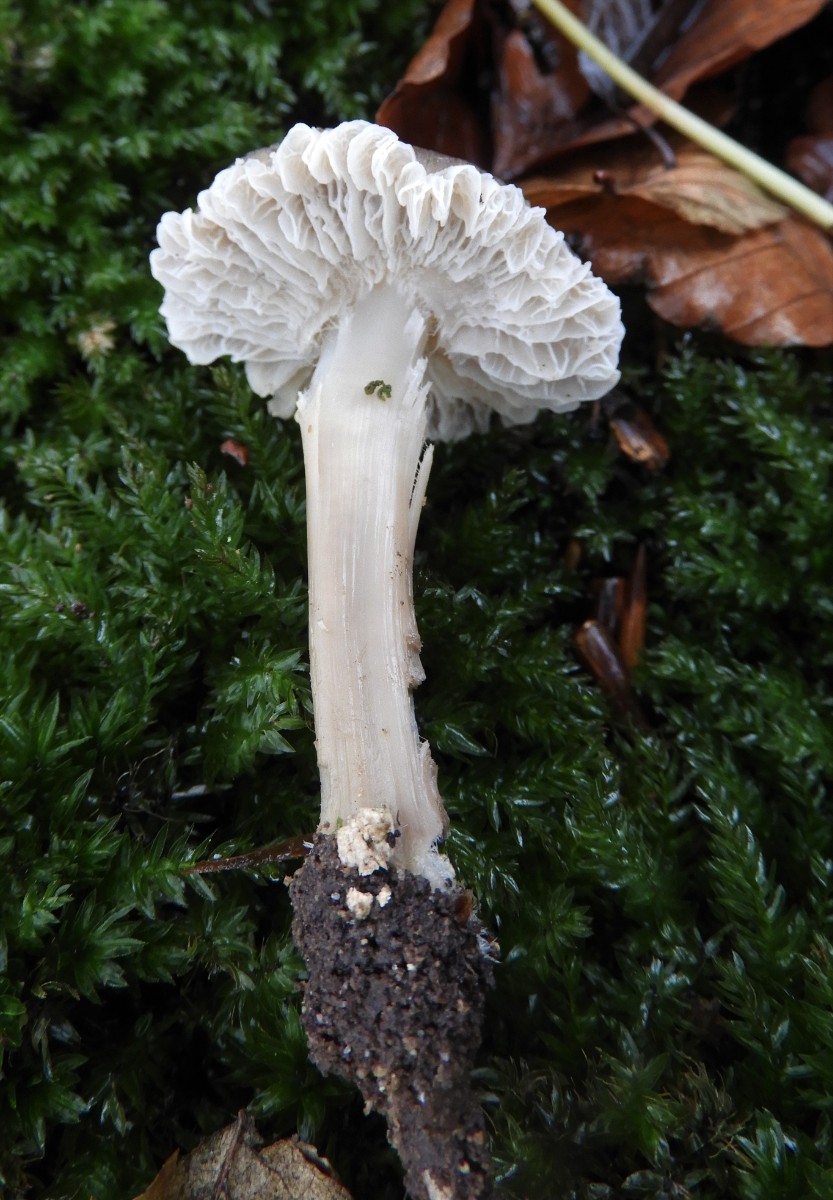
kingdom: Fungi
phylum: Basidiomycota
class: Agaricomycetes
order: Agaricales
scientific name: Agaricales
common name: champignonordenen
